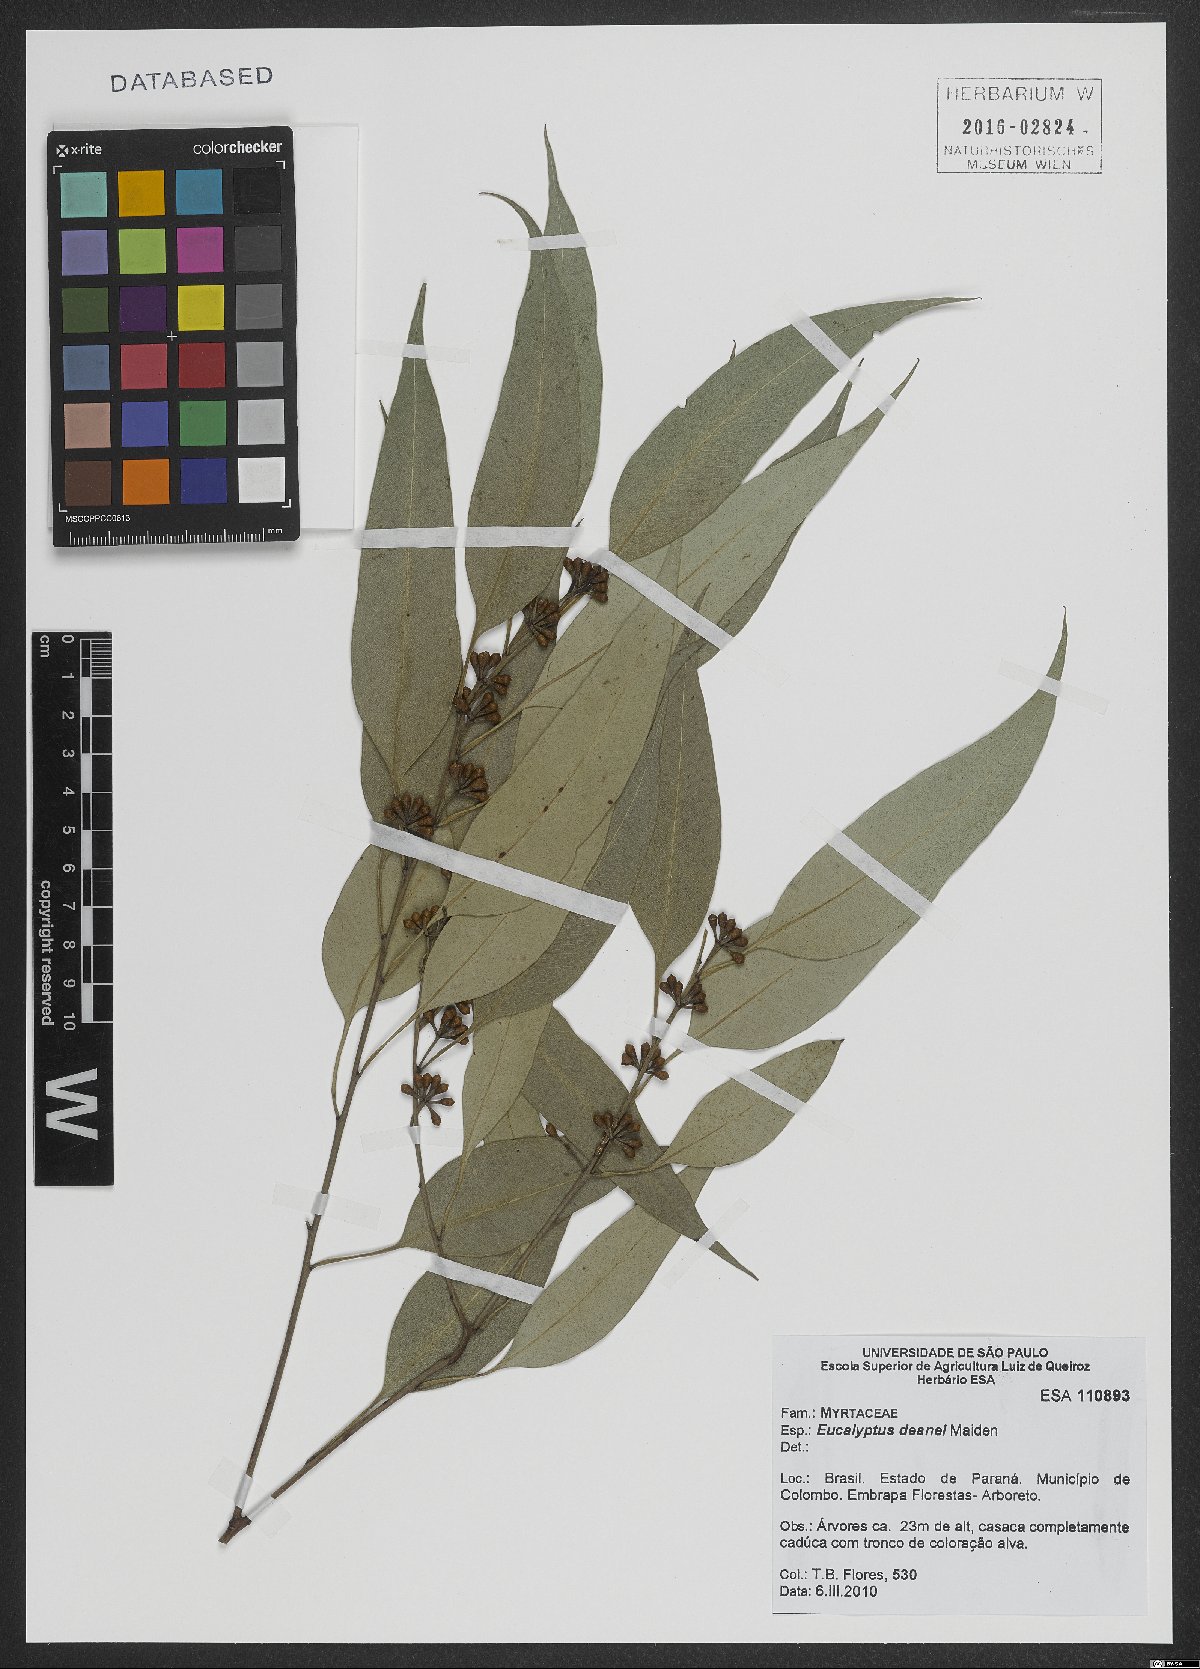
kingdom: Plantae
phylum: Tracheophyta
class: Magnoliopsida
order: Myrtales
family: Myrtaceae
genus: Eucalyptus
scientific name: Eucalyptus deanei
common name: Brown gum
